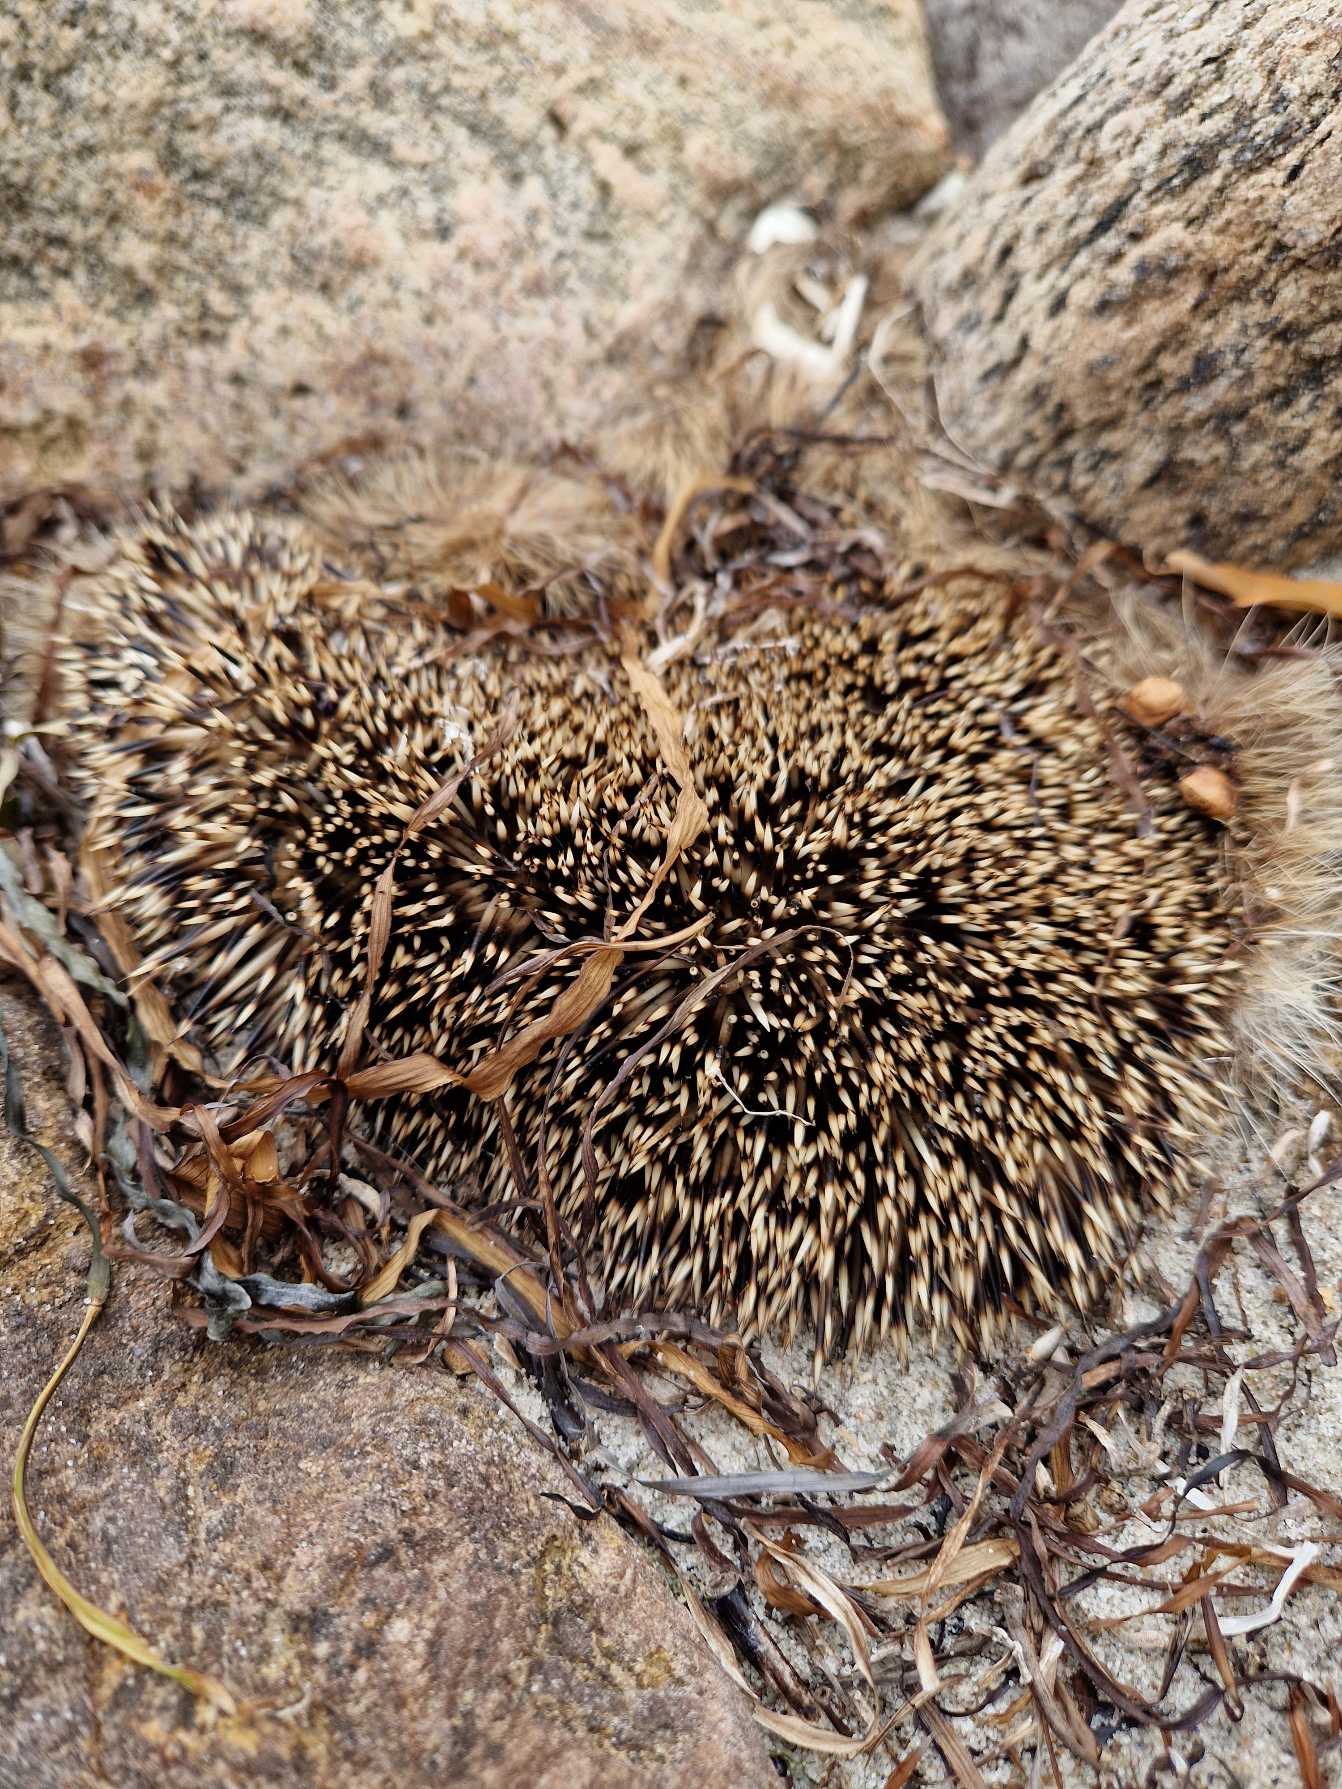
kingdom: Animalia
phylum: Chordata
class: Mammalia
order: Erinaceomorpha
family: Erinaceidae
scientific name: Erinaceidae
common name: Pindsvin
